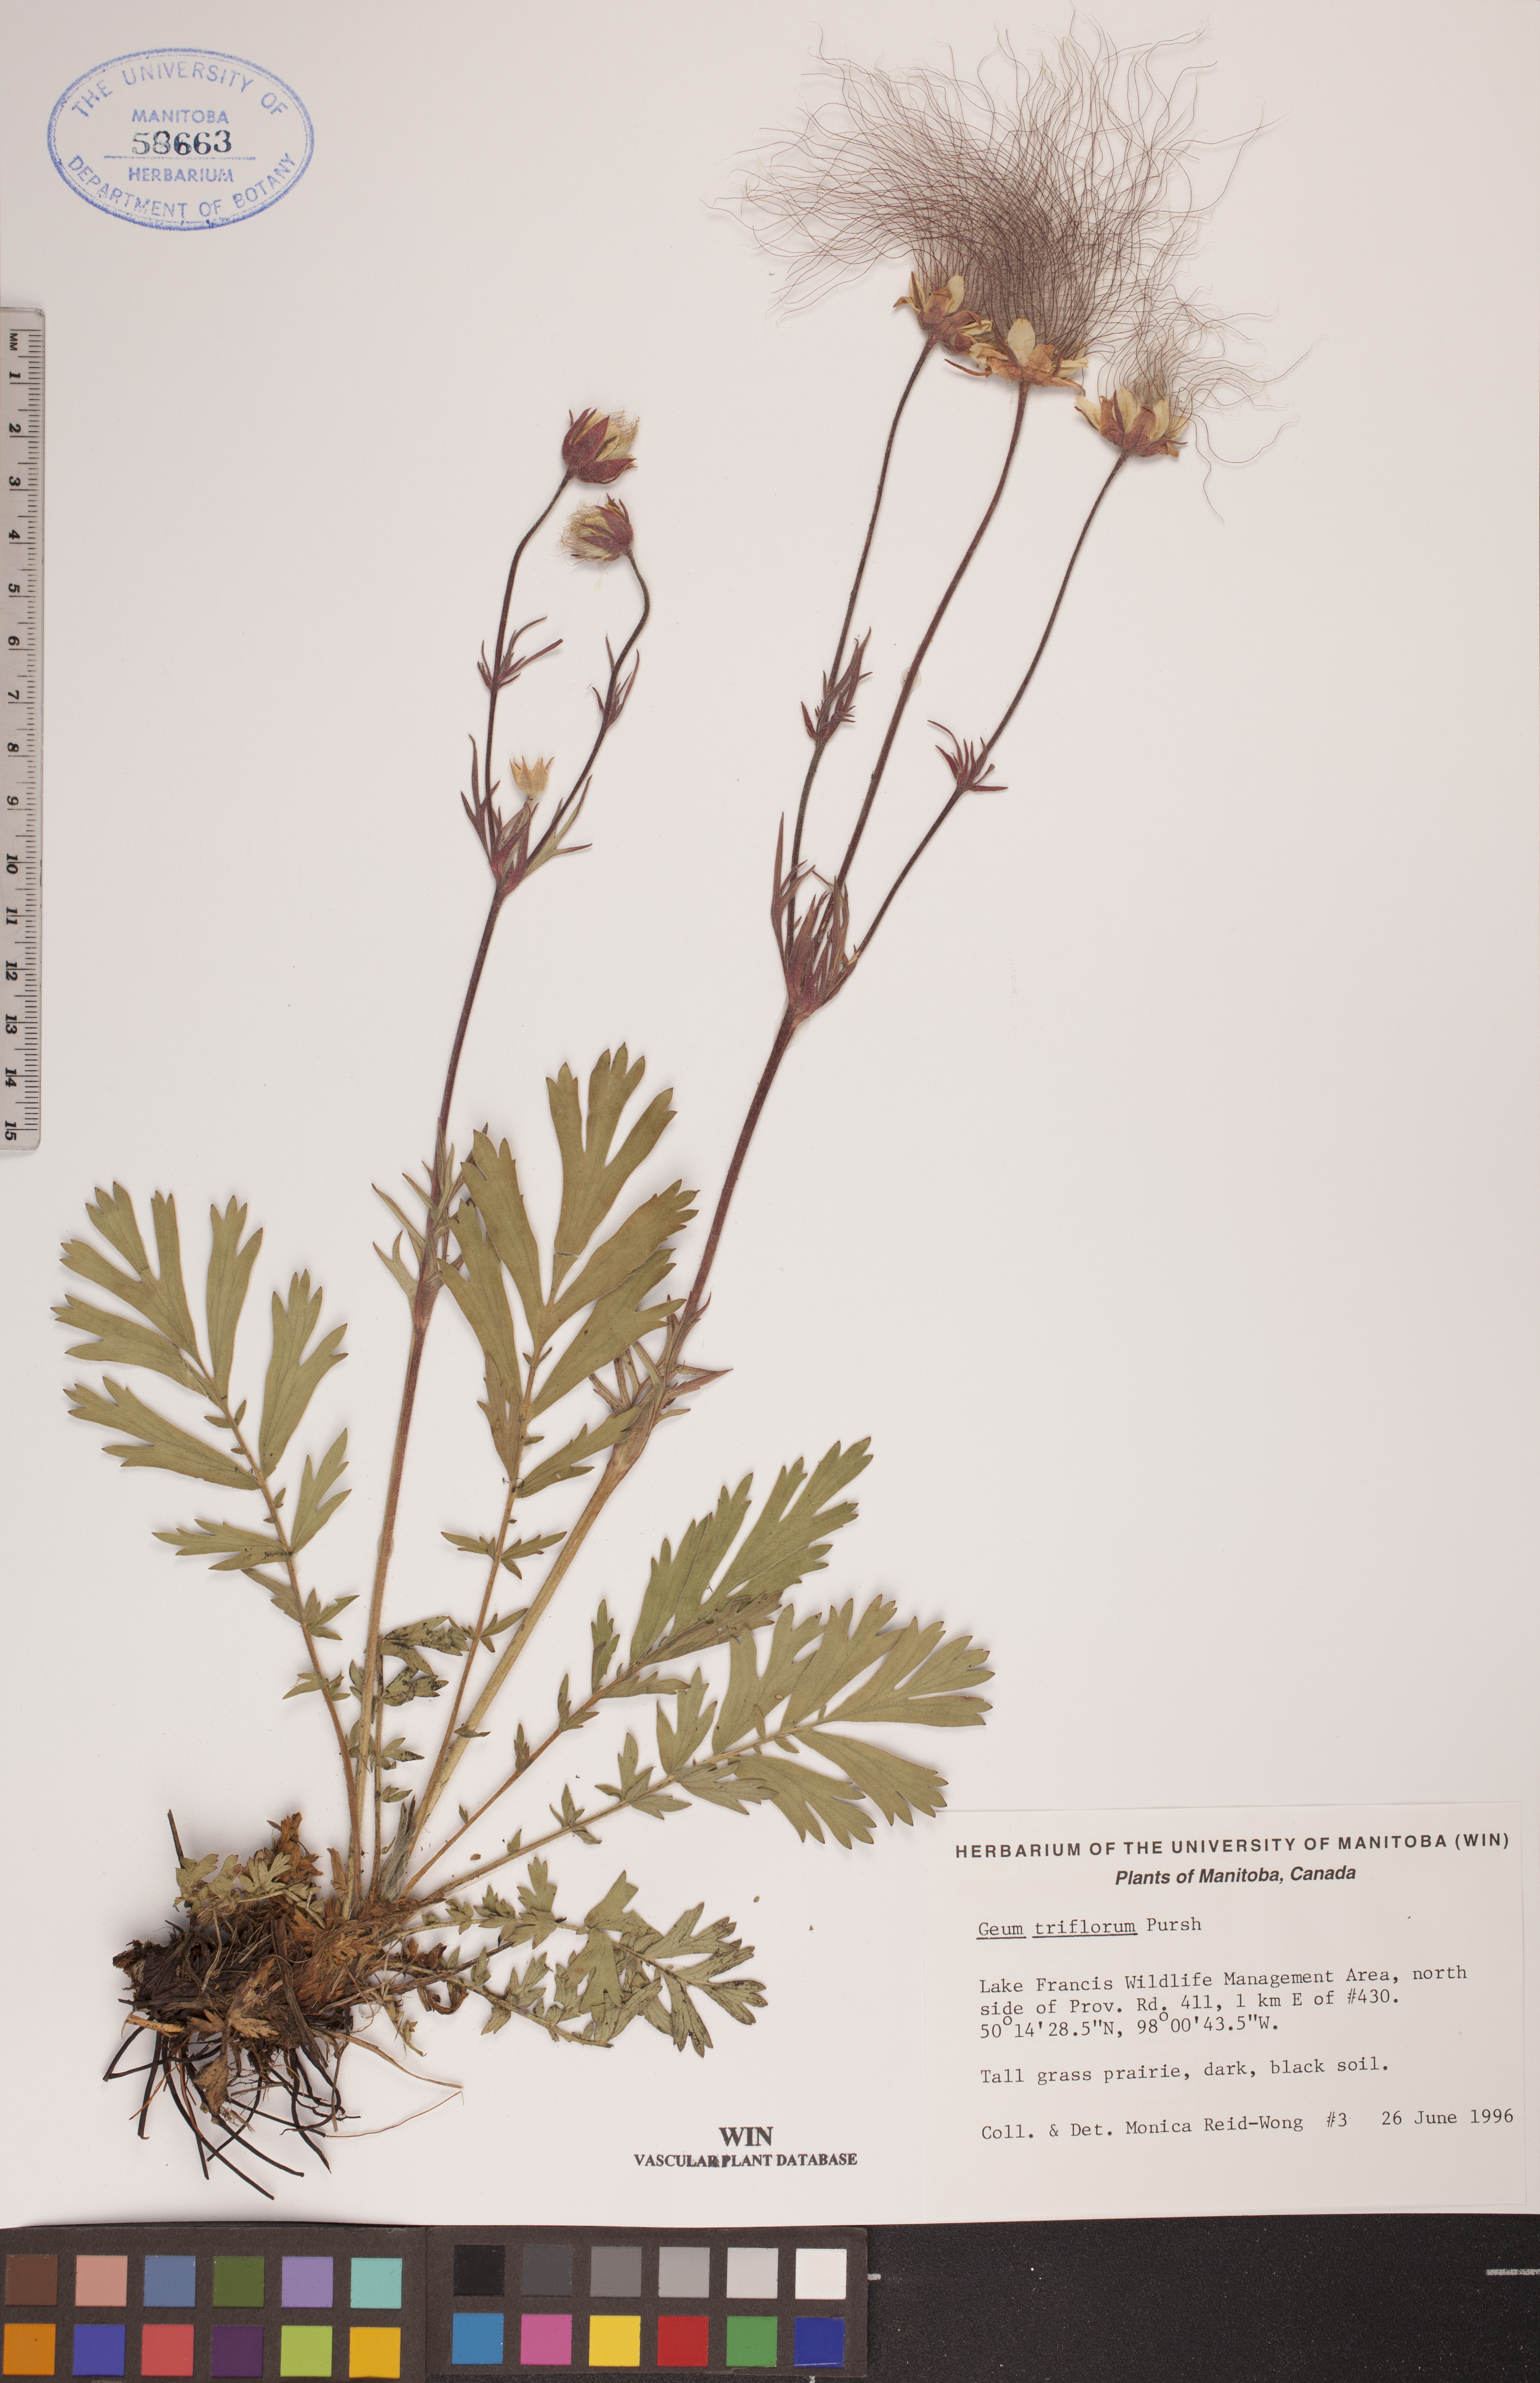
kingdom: Plantae
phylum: Tracheophyta
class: Magnoliopsida
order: Rosales
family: Rosaceae
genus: Geum
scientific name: Geum triflorum
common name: Old man's whiskers
